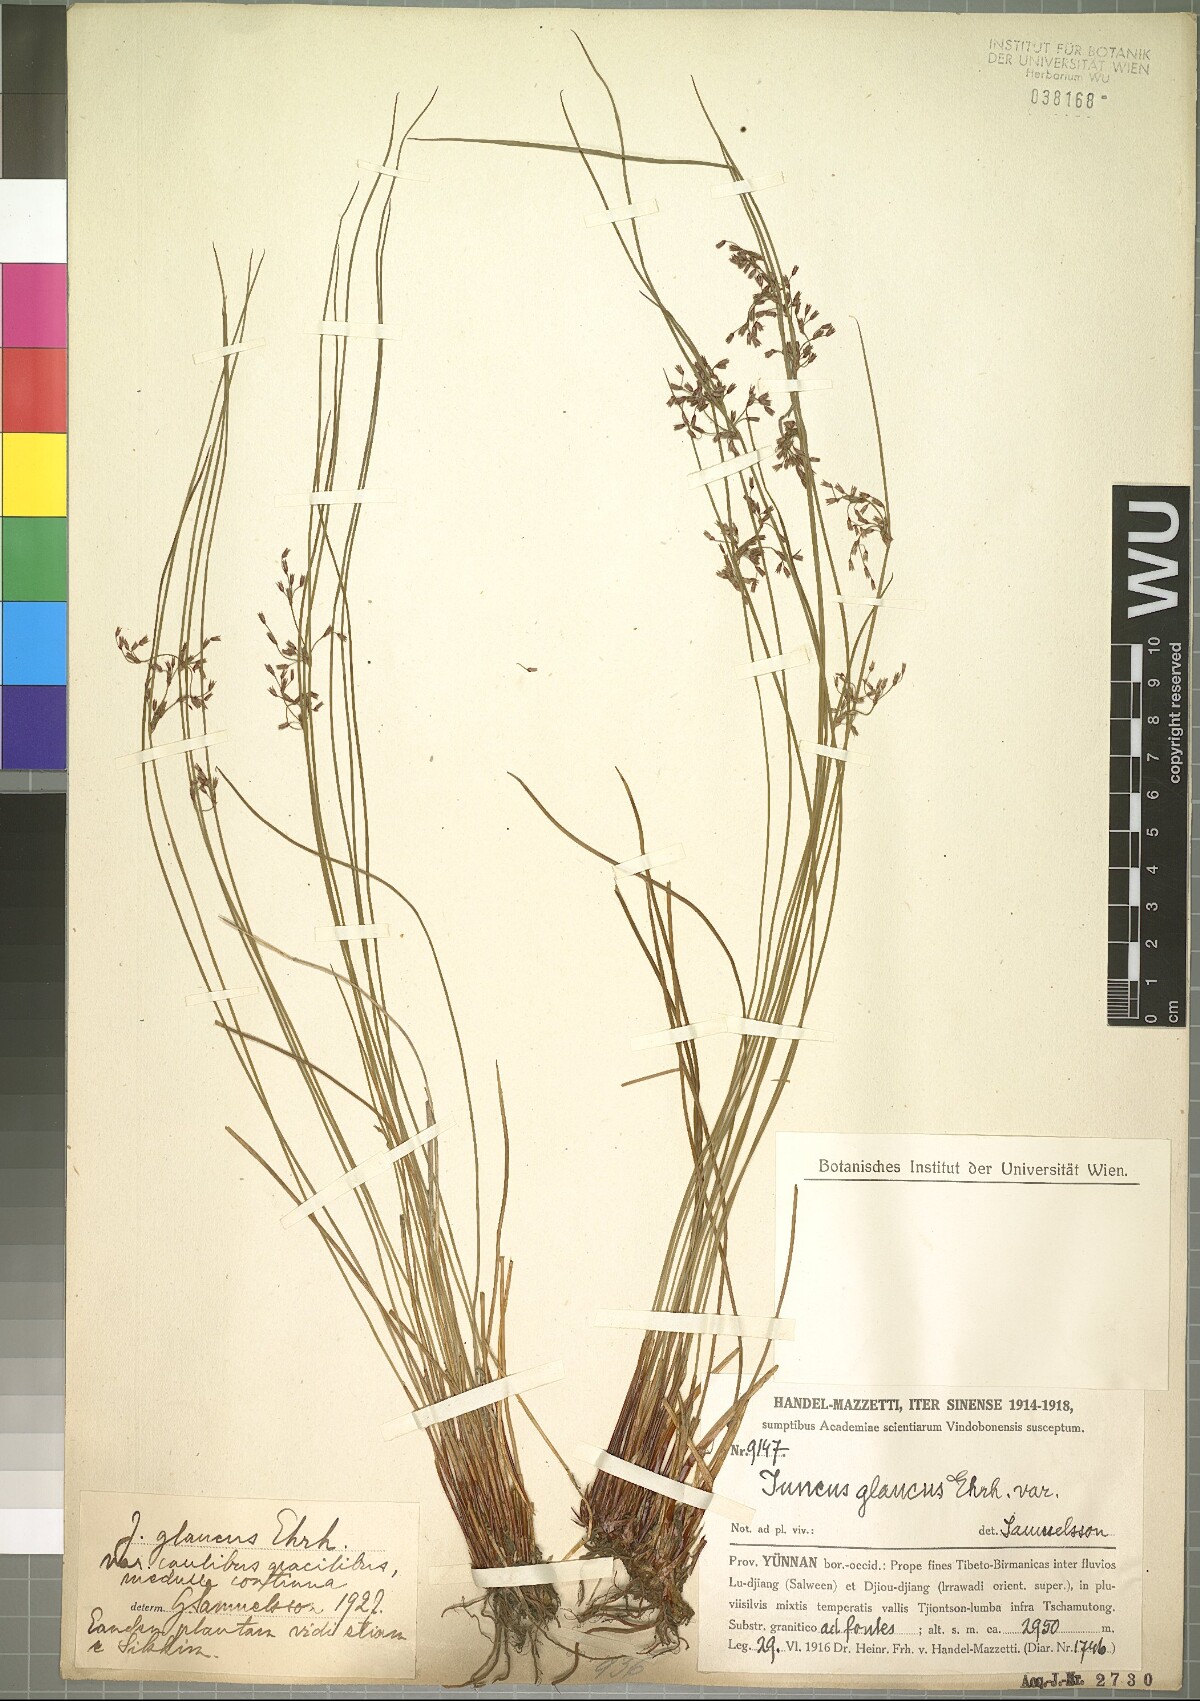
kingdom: Plantae
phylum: Tracheophyta
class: Liliopsida
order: Poales
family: Juncaceae
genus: Juncus
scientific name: Juncus inflexus
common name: Hard rush
